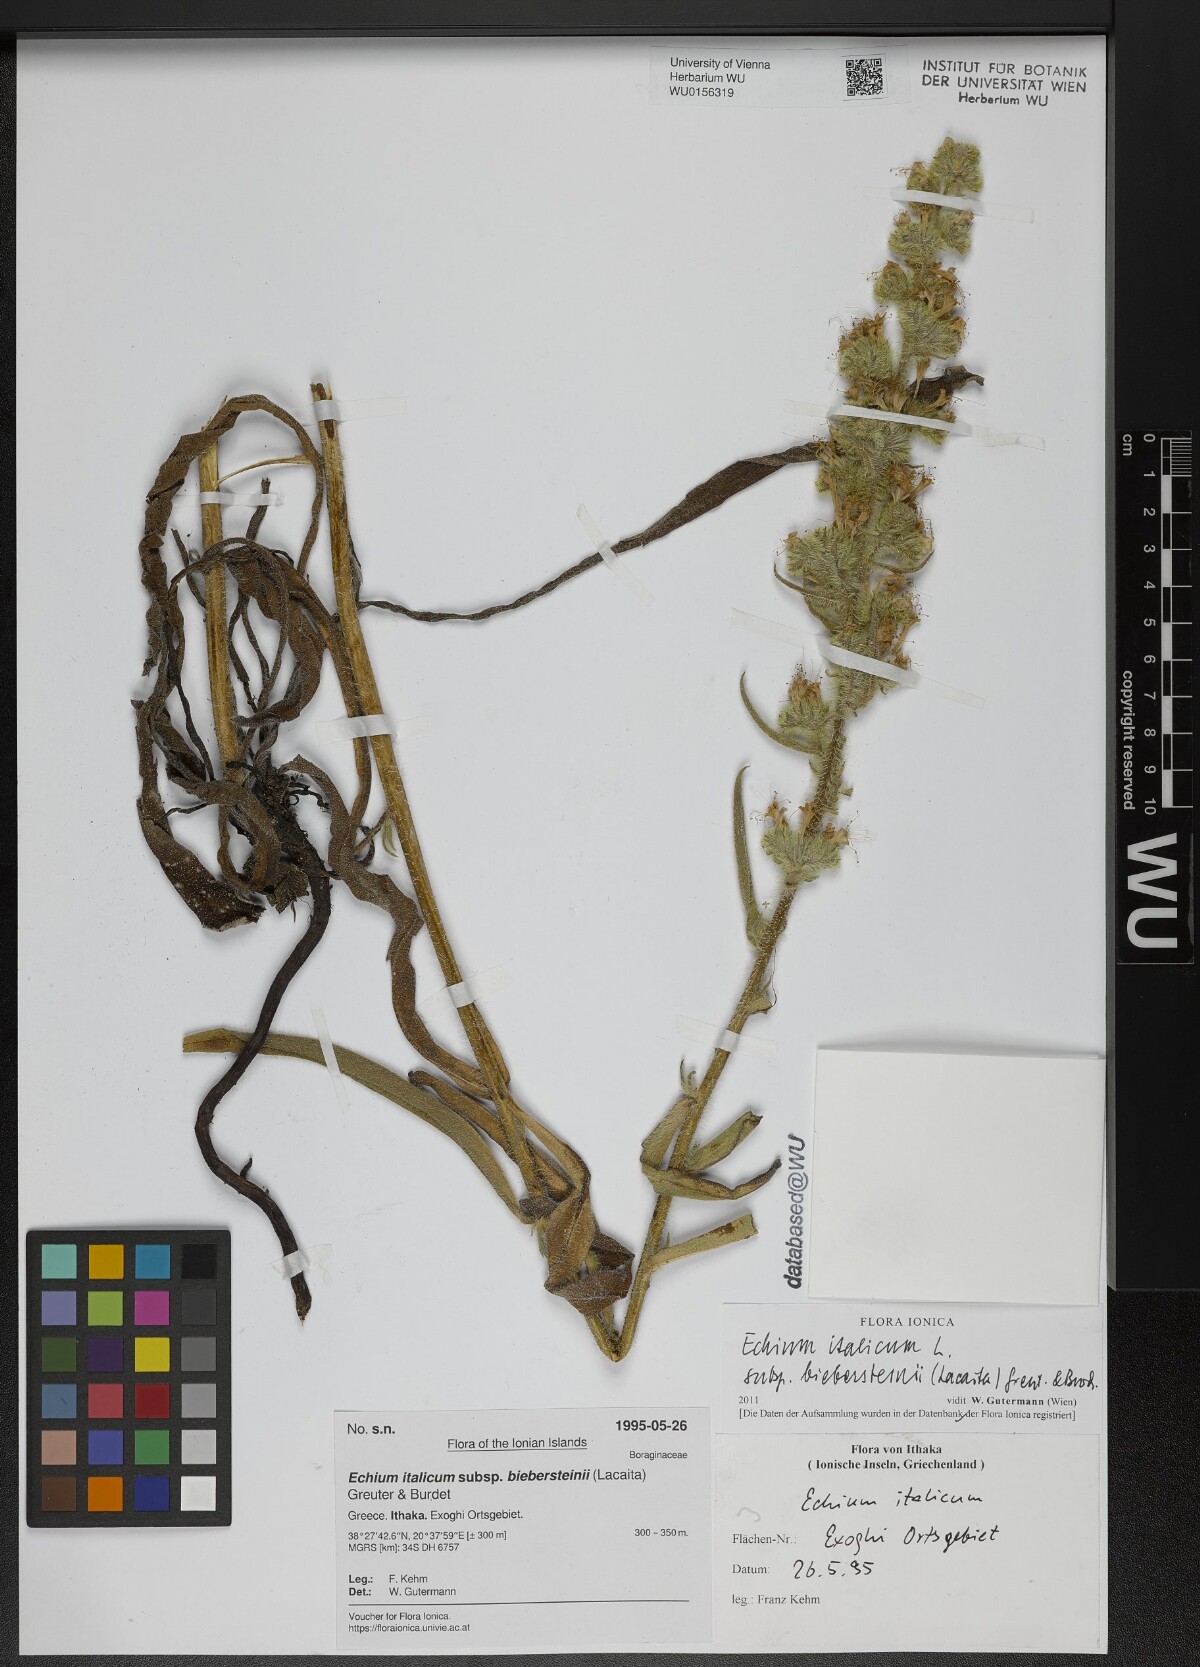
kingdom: Plantae
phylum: Tracheophyta
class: Magnoliopsida
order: Boraginales
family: Boraginaceae
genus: Echium
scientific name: Echium italicum
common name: Italian viper's bugloss
